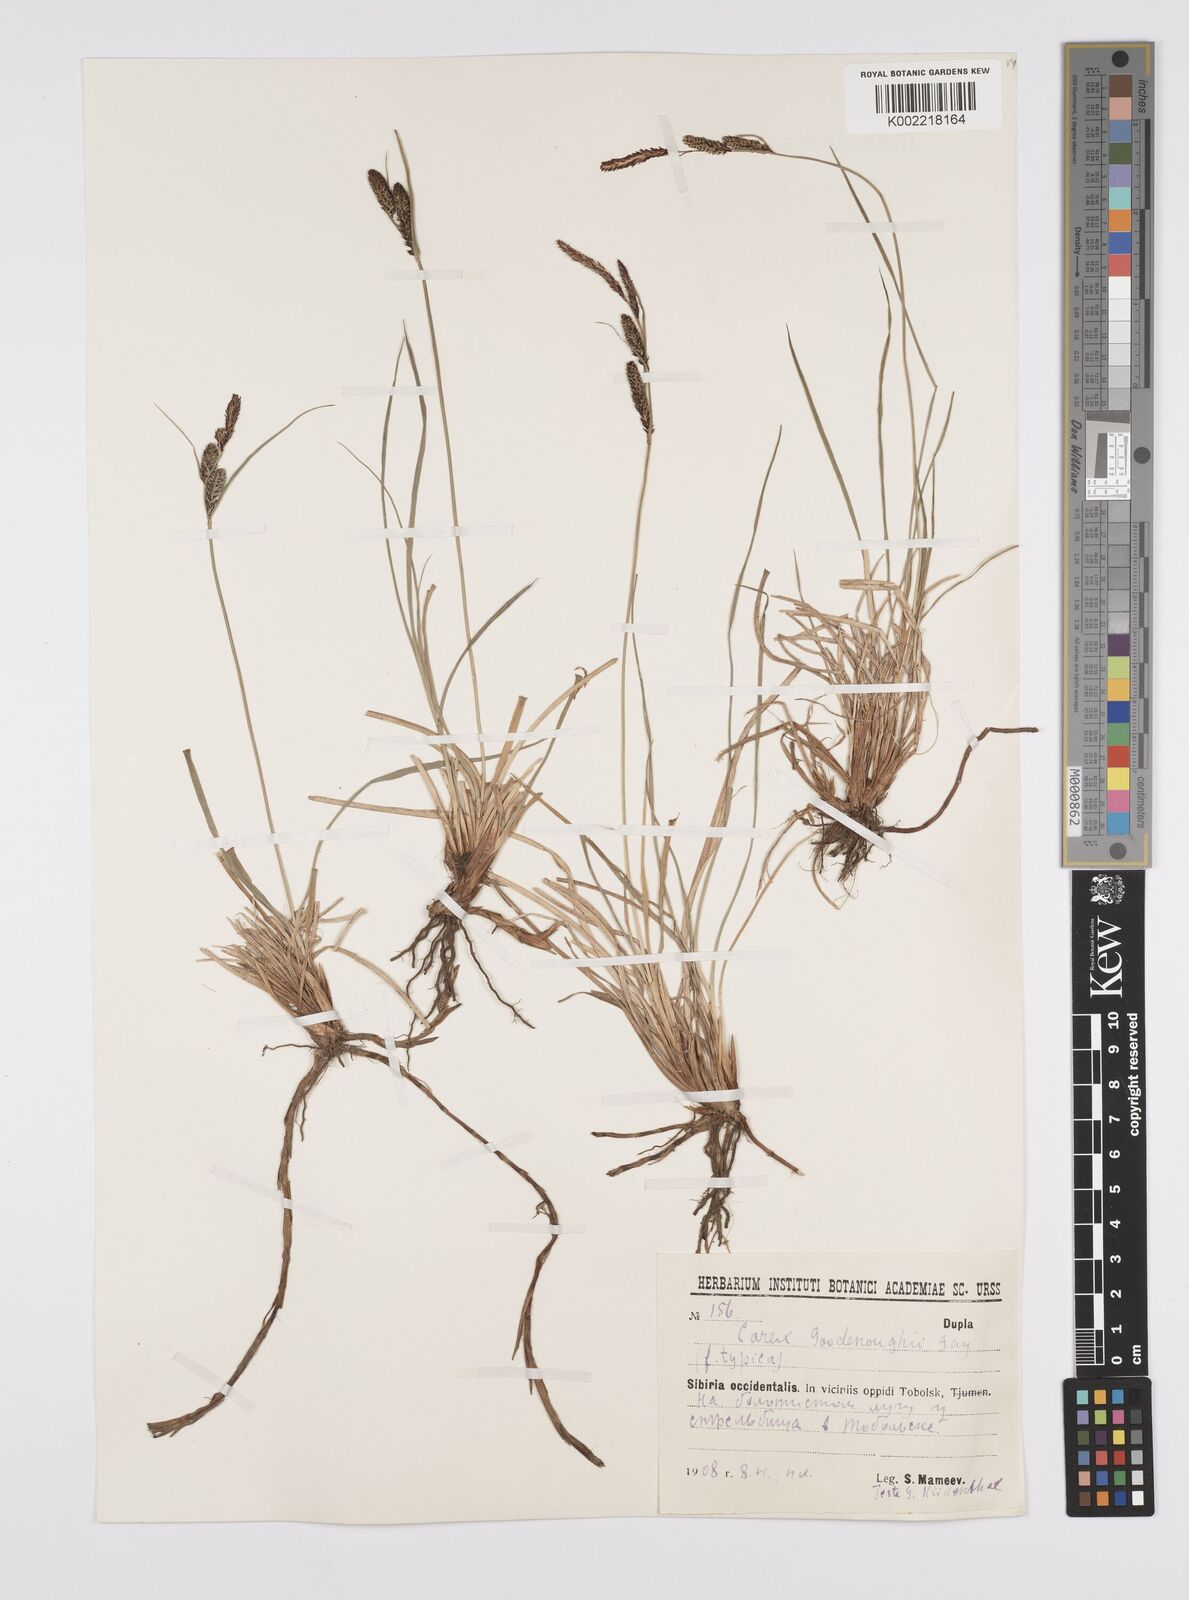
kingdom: Plantae
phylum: Tracheophyta
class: Liliopsida
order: Poales
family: Cyperaceae
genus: Carex
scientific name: Carex nigra
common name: Common sedge
